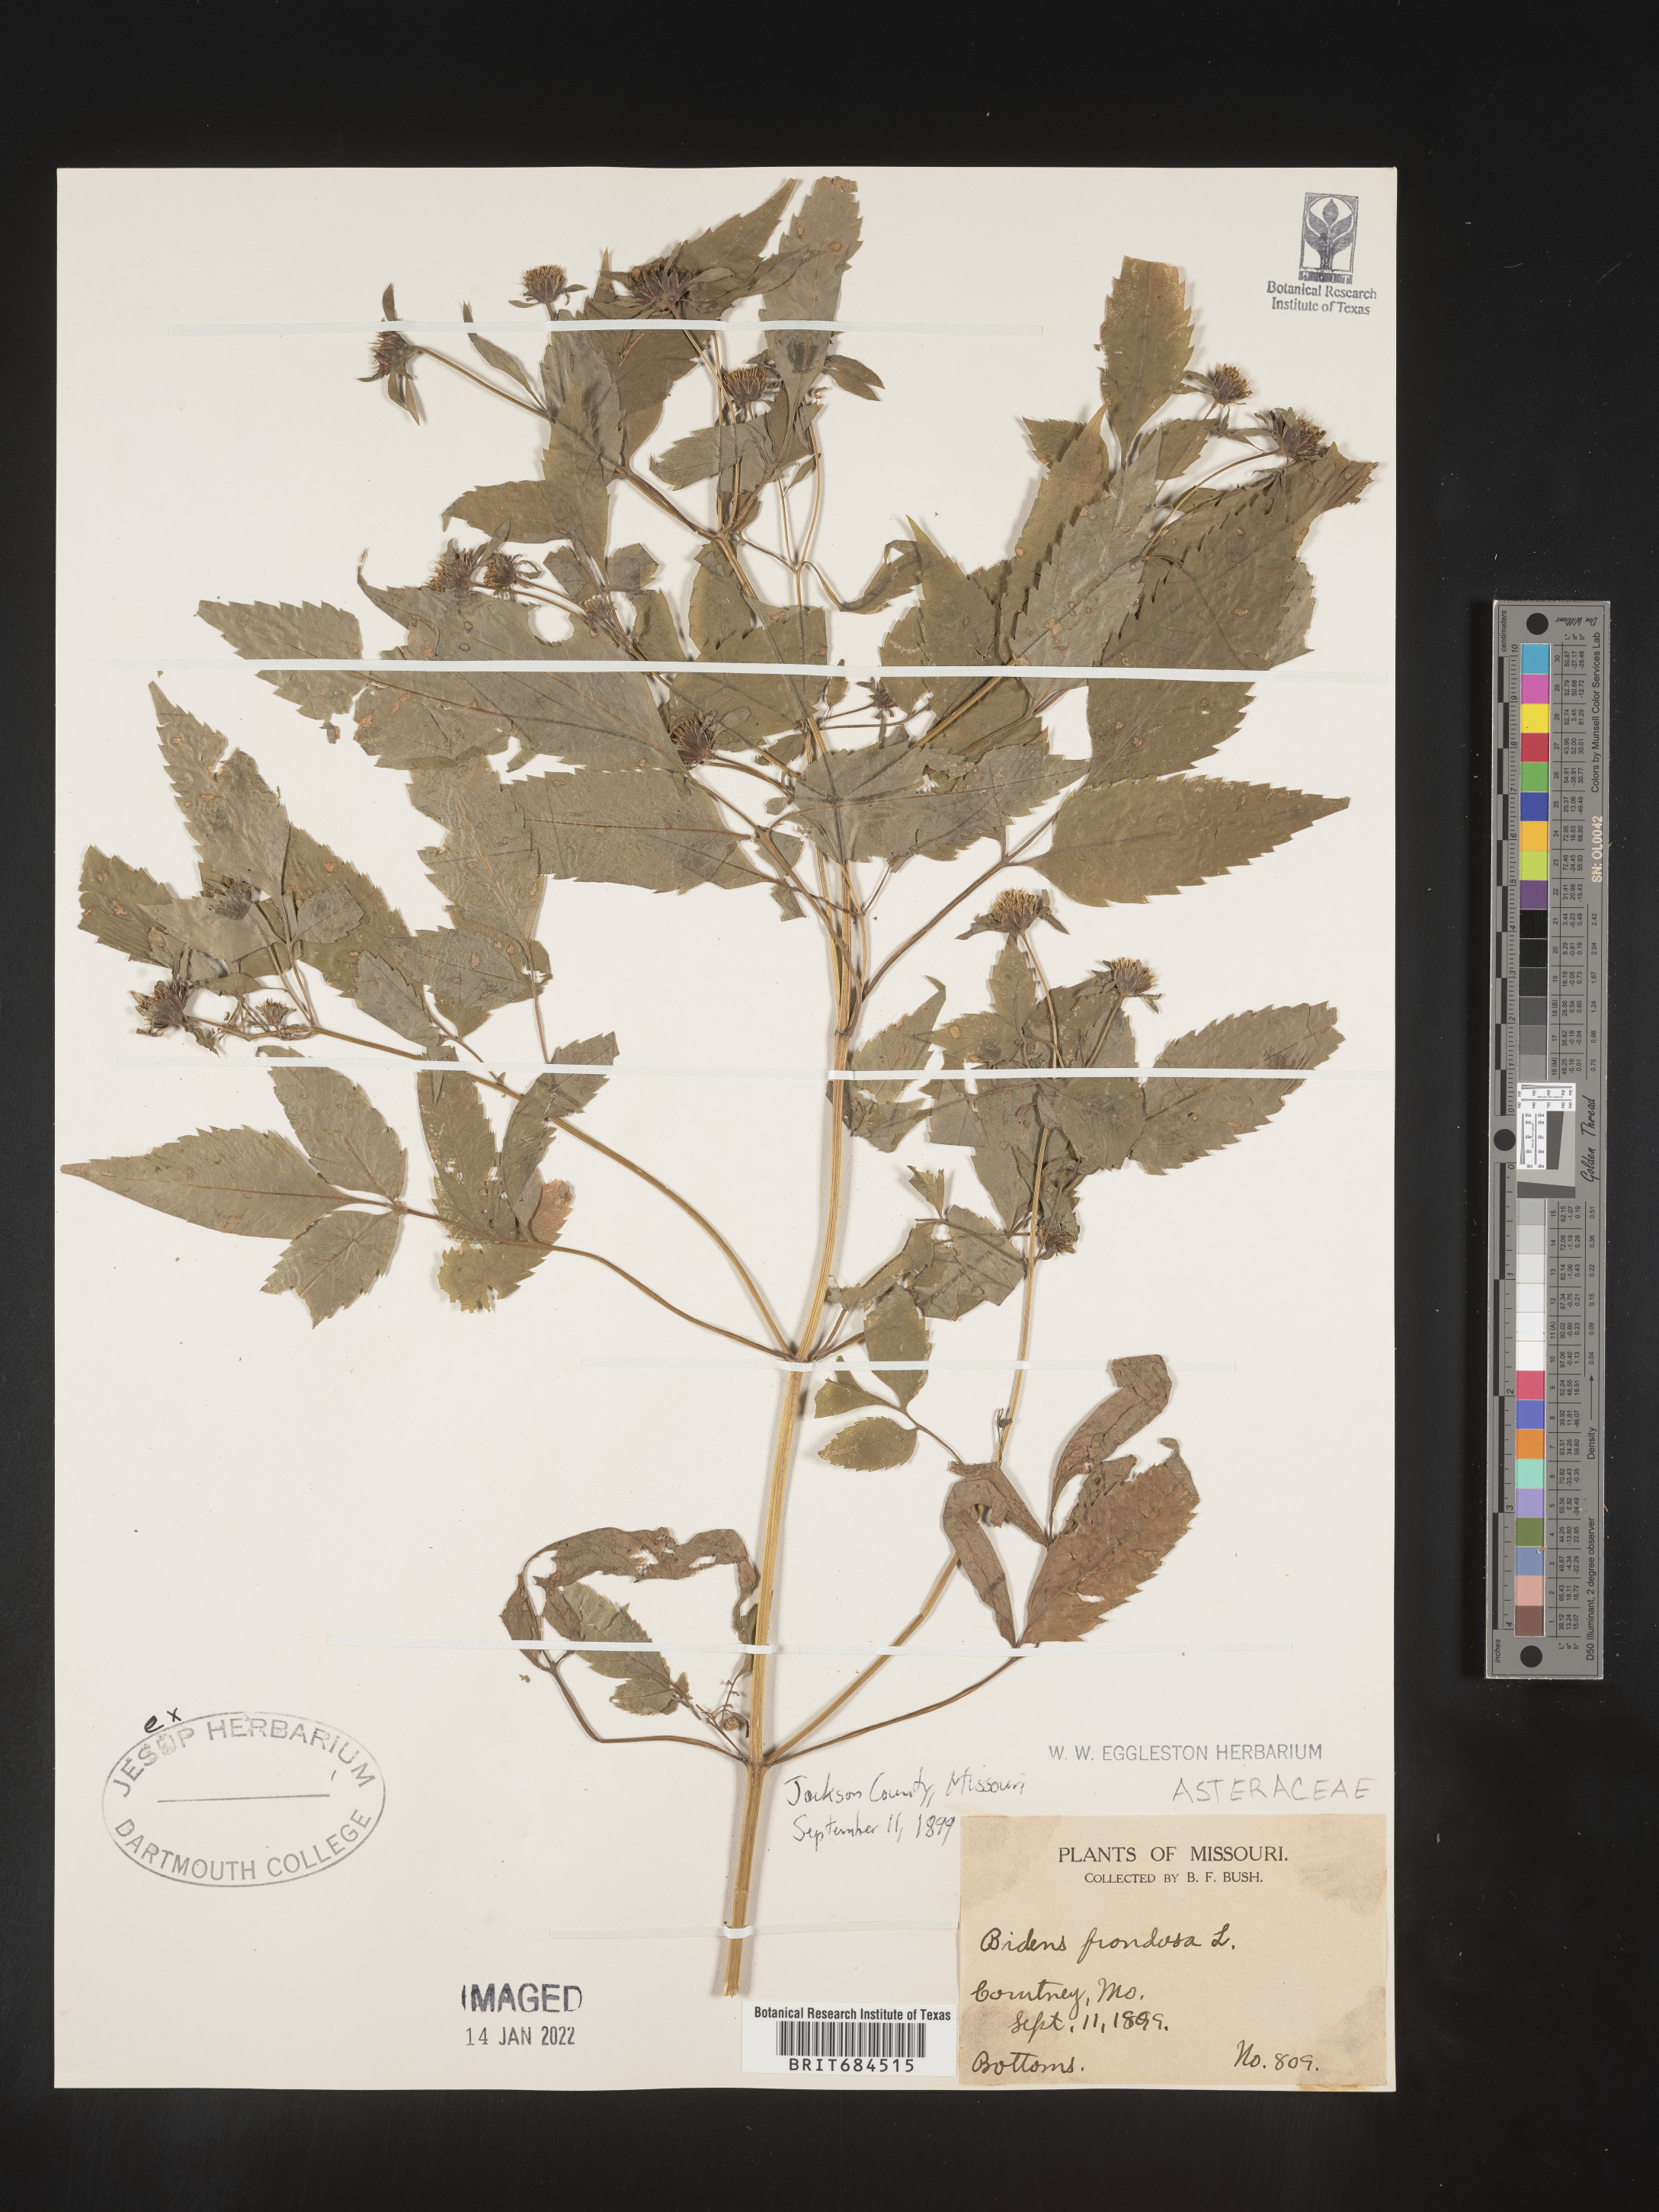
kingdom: Plantae
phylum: Tracheophyta
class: Magnoliopsida
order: Asterales
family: Asteraceae
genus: Bidens
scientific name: Bidens frondosa
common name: Beggarticks
